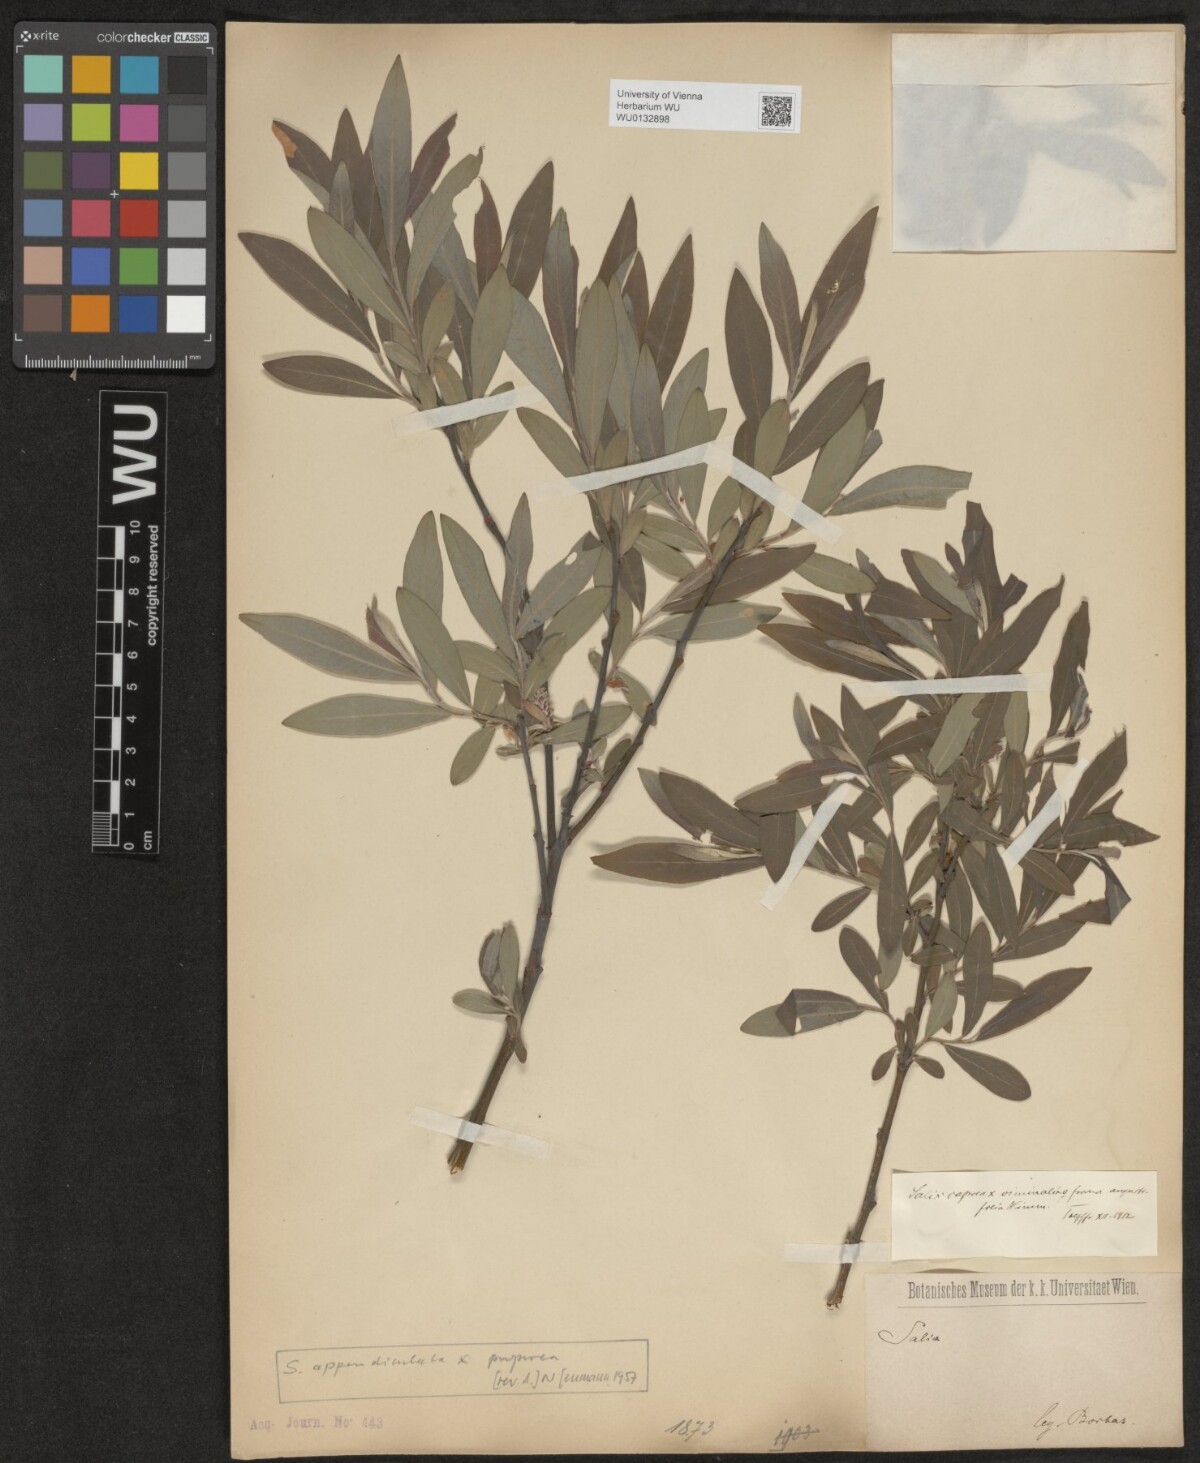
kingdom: Plantae
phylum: Tracheophyta
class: Magnoliopsida
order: Malpighiales
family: Salicaceae
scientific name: Salicaceae
